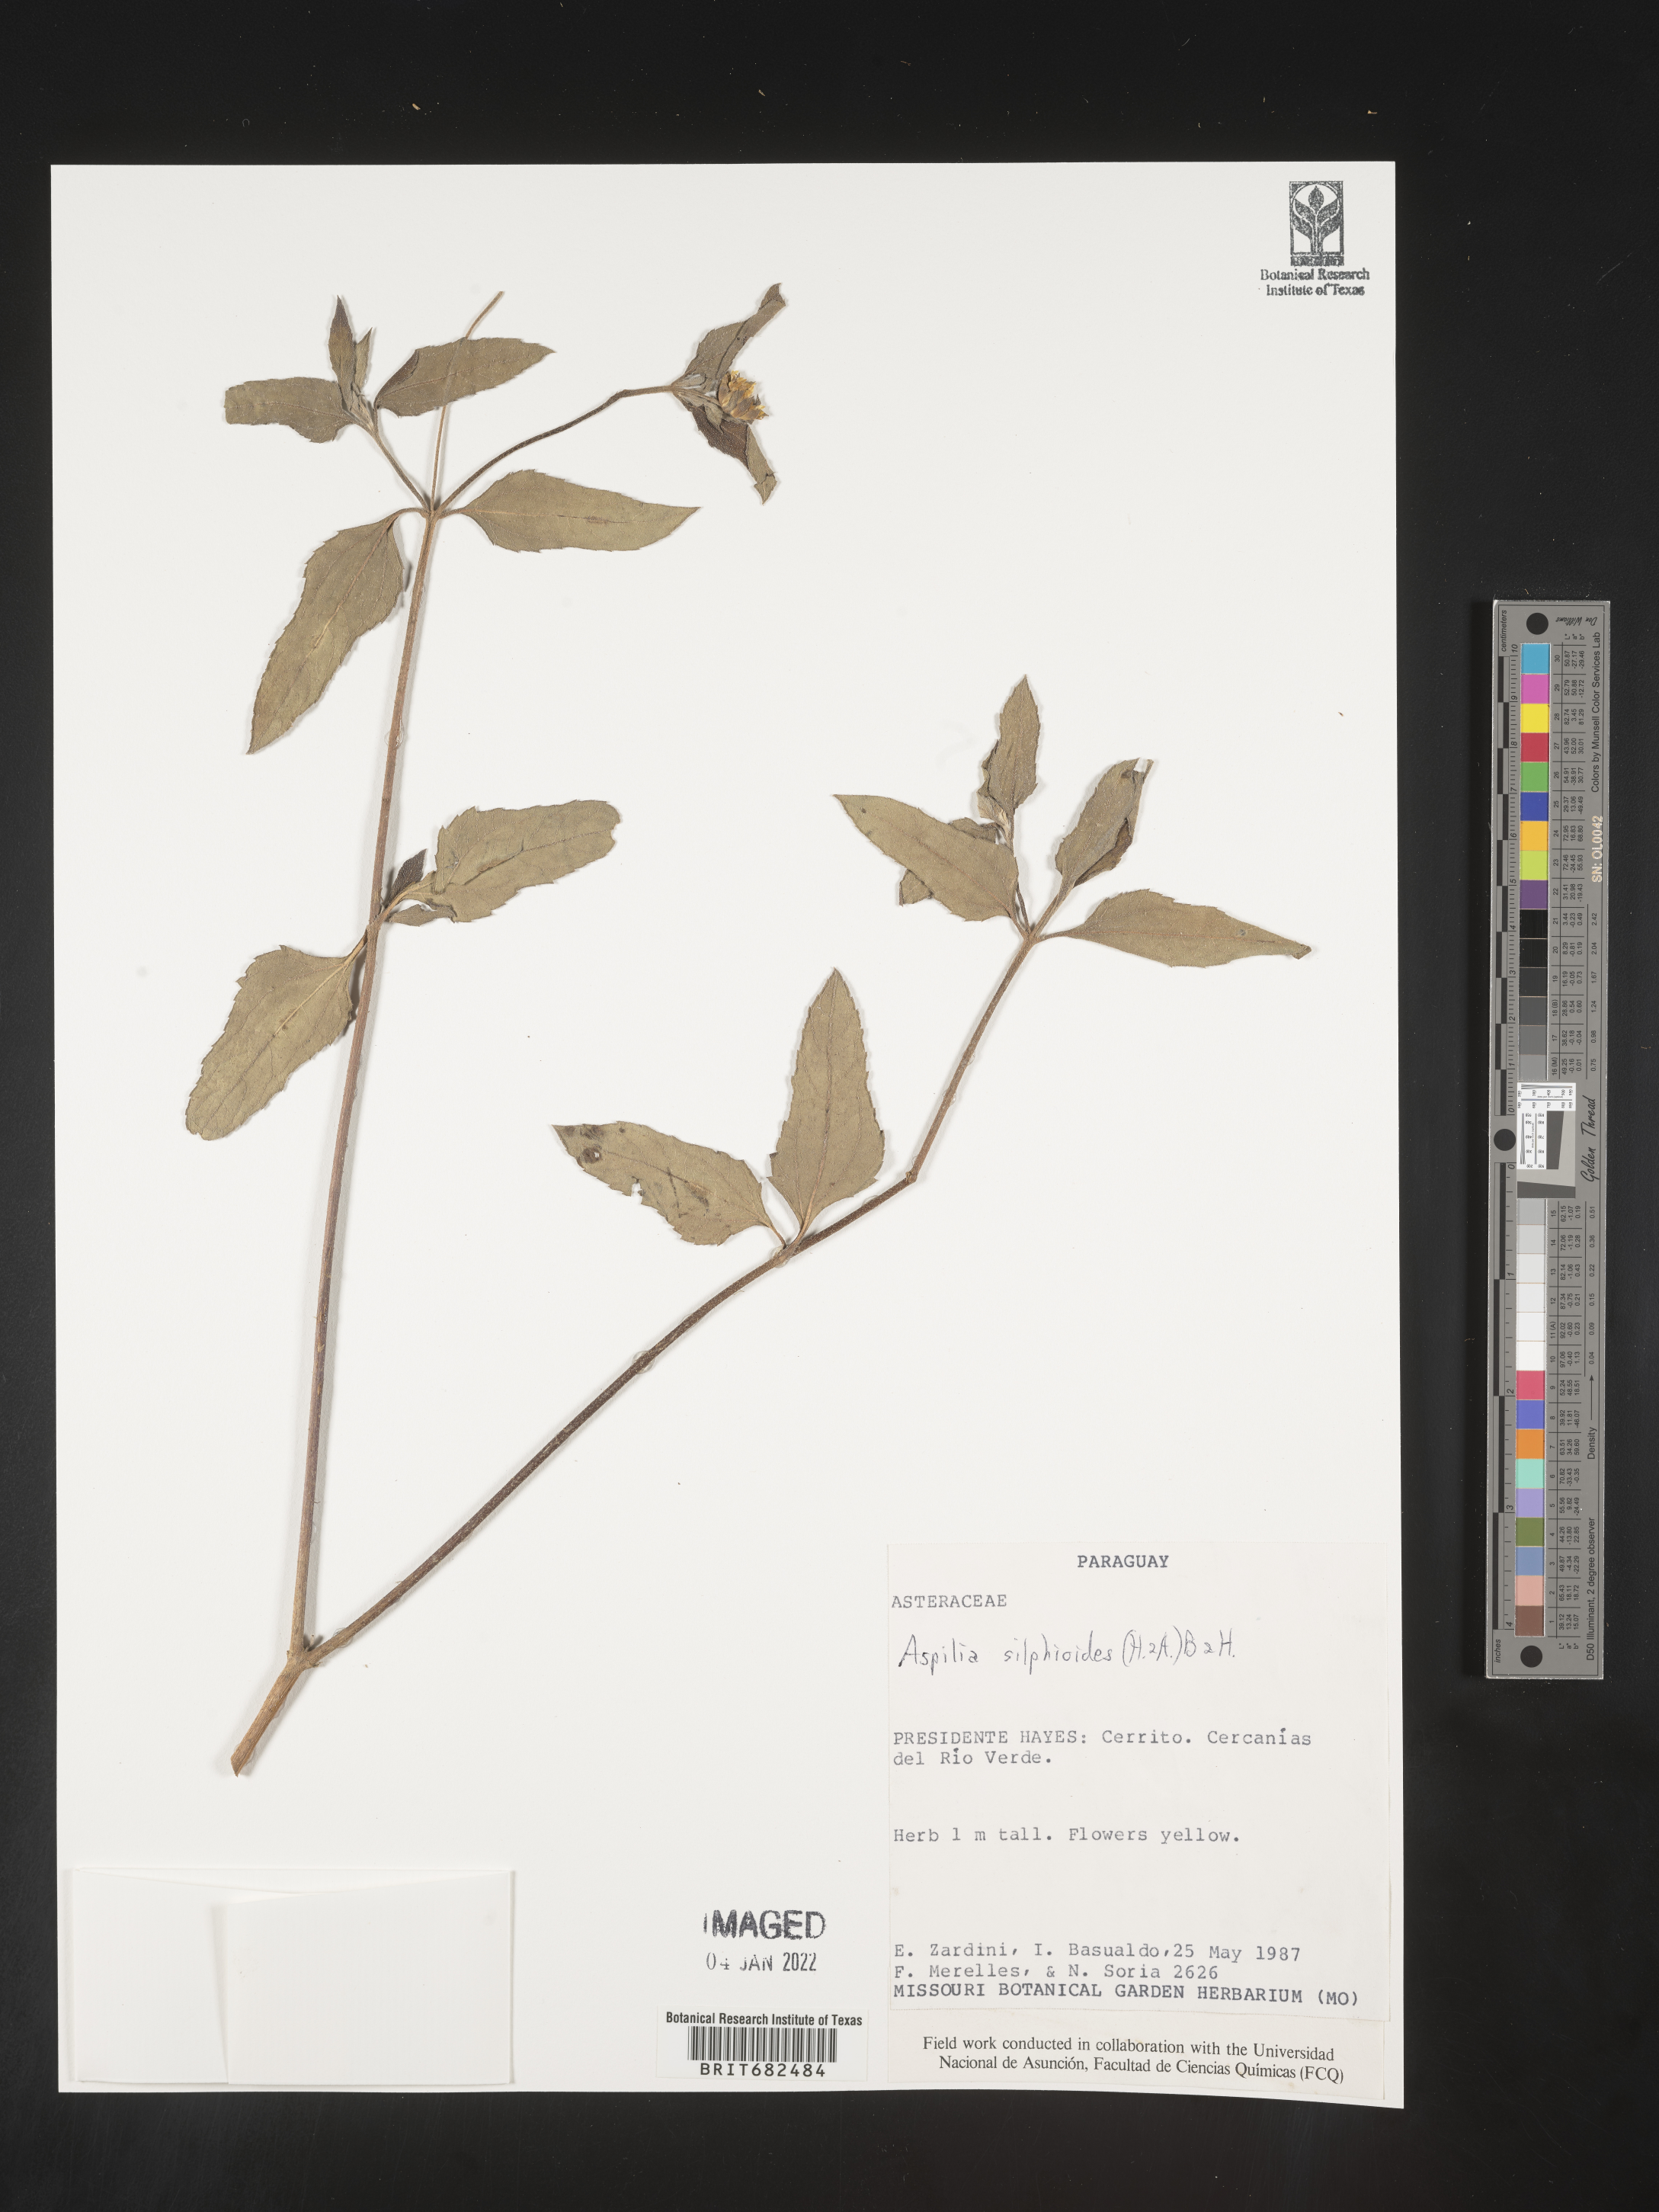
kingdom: Plantae
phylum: Tracheophyta
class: Magnoliopsida
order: Asterales
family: Asteraceae
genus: Aspilia
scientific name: Aspilia
